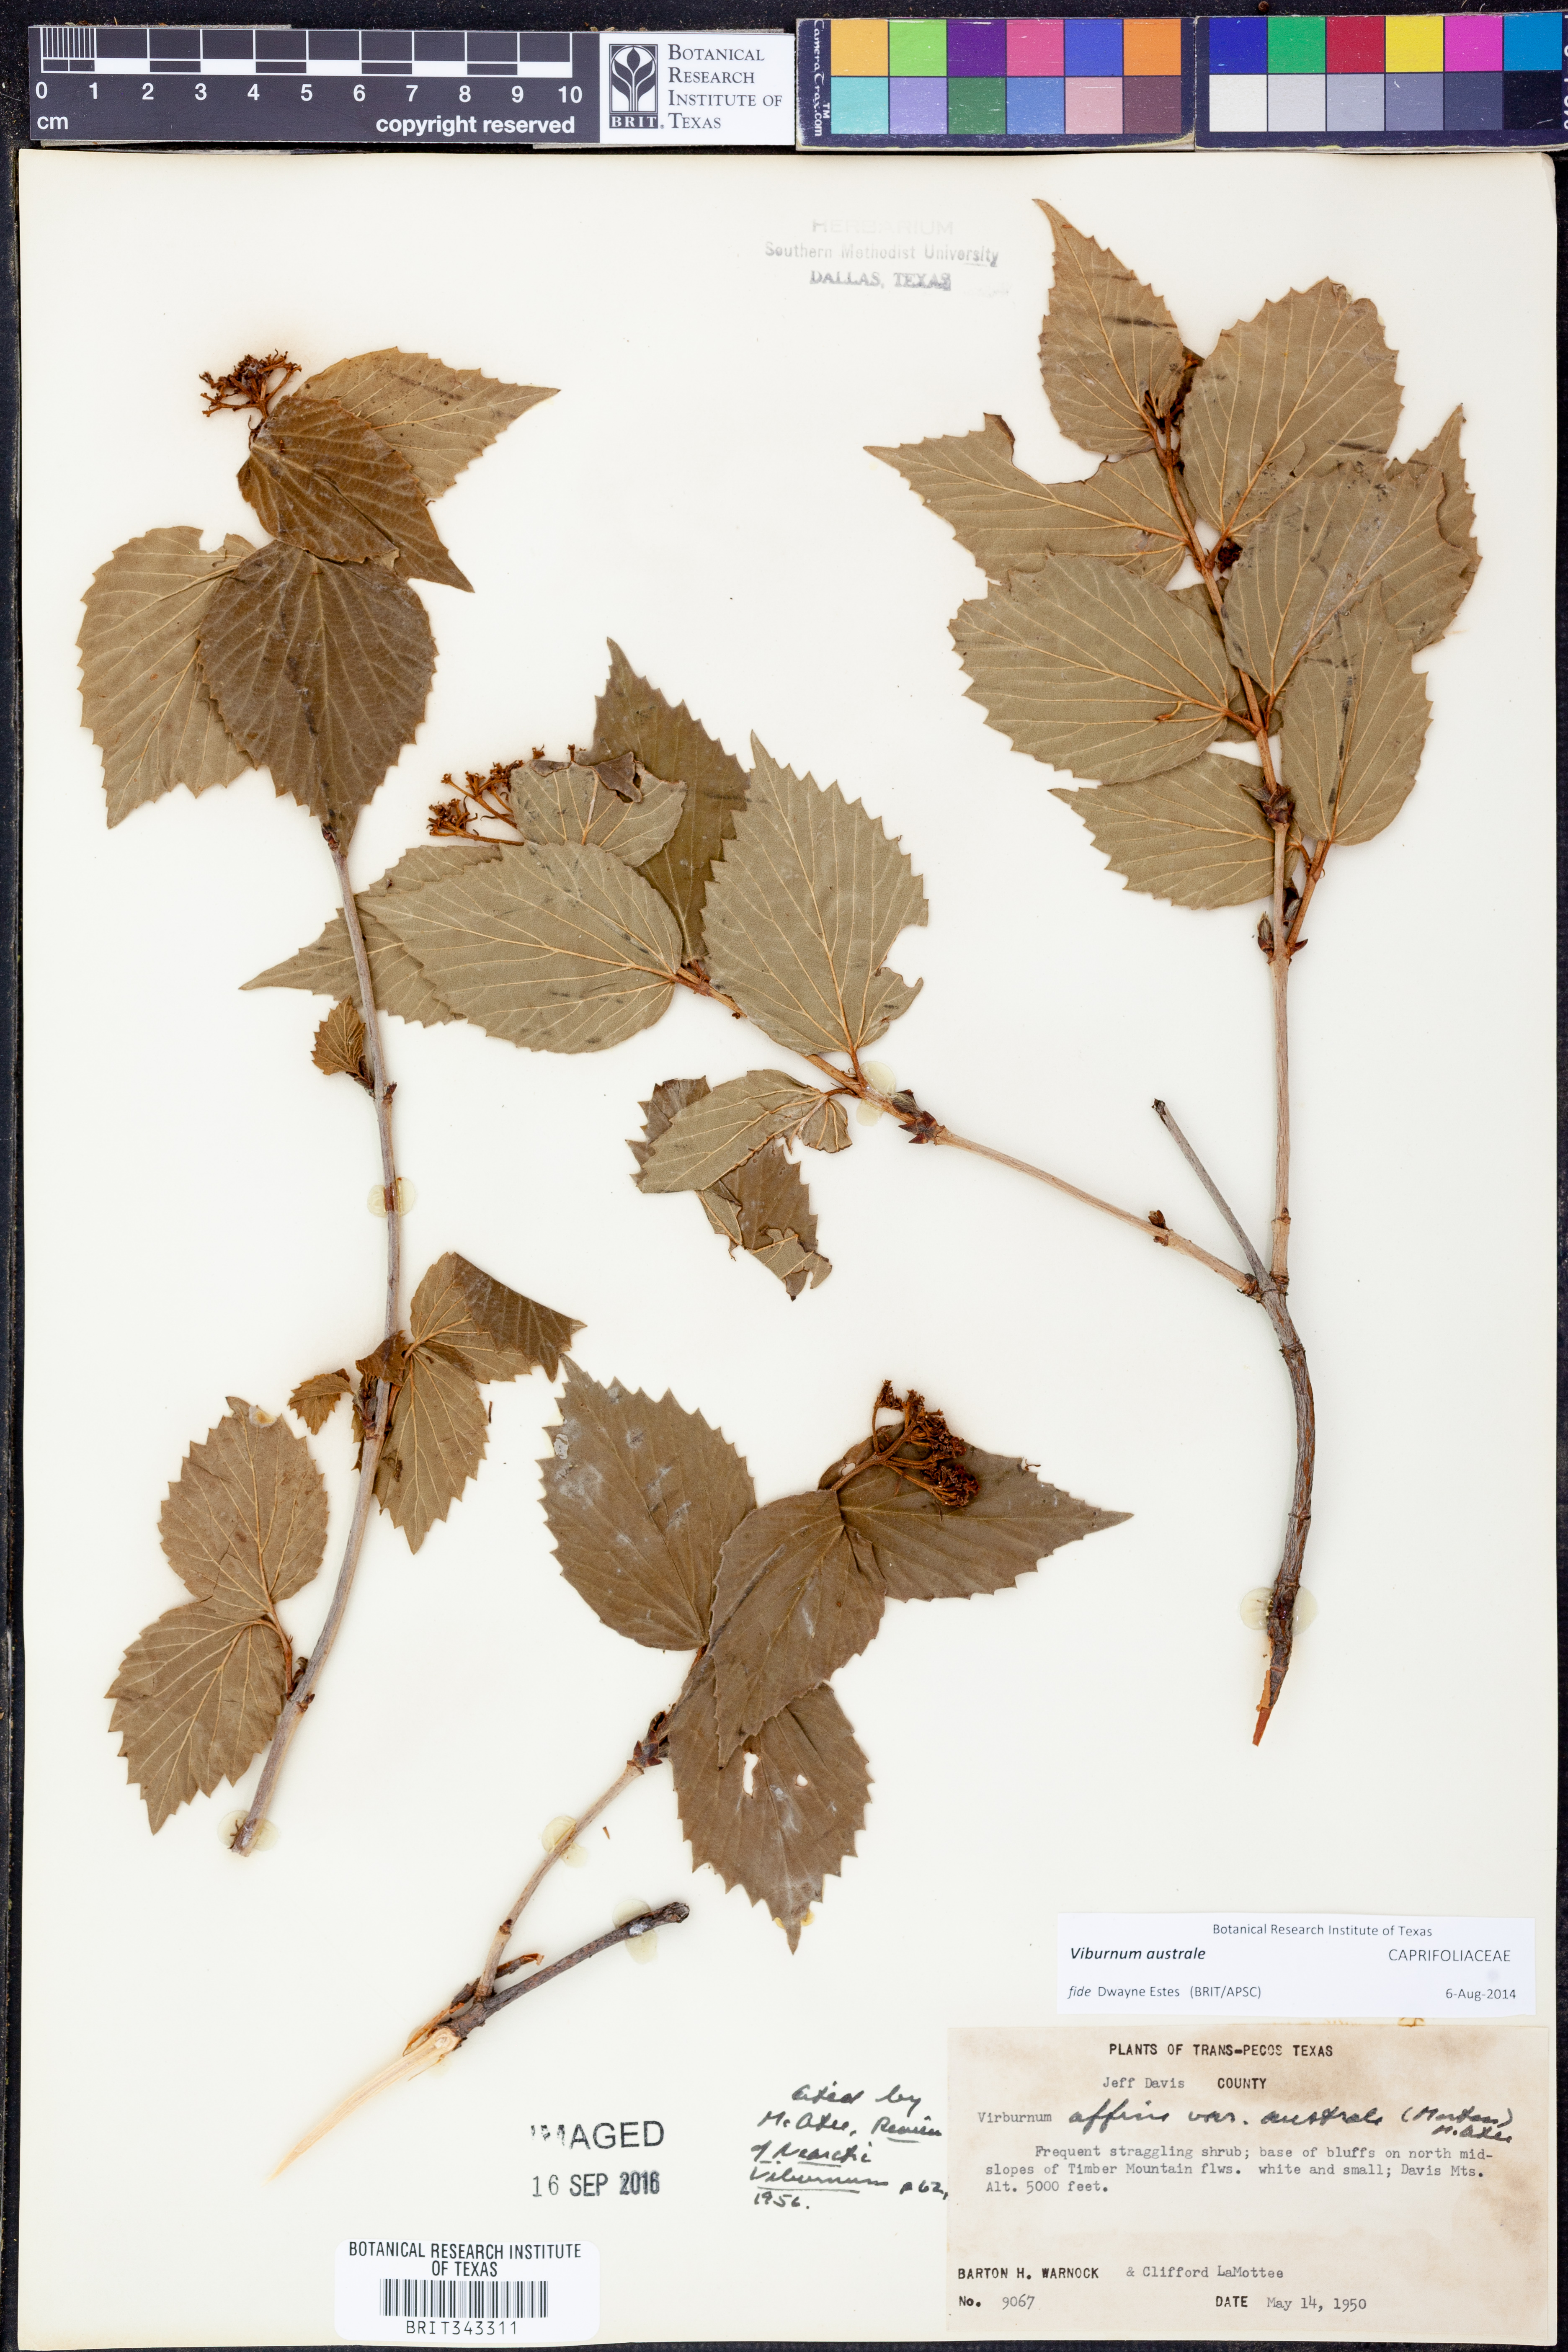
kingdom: Plantae
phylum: Tracheophyta
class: Magnoliopsida
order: Dipsacales
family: Viburnaceae
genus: Viburnum
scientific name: Viburnum australe
